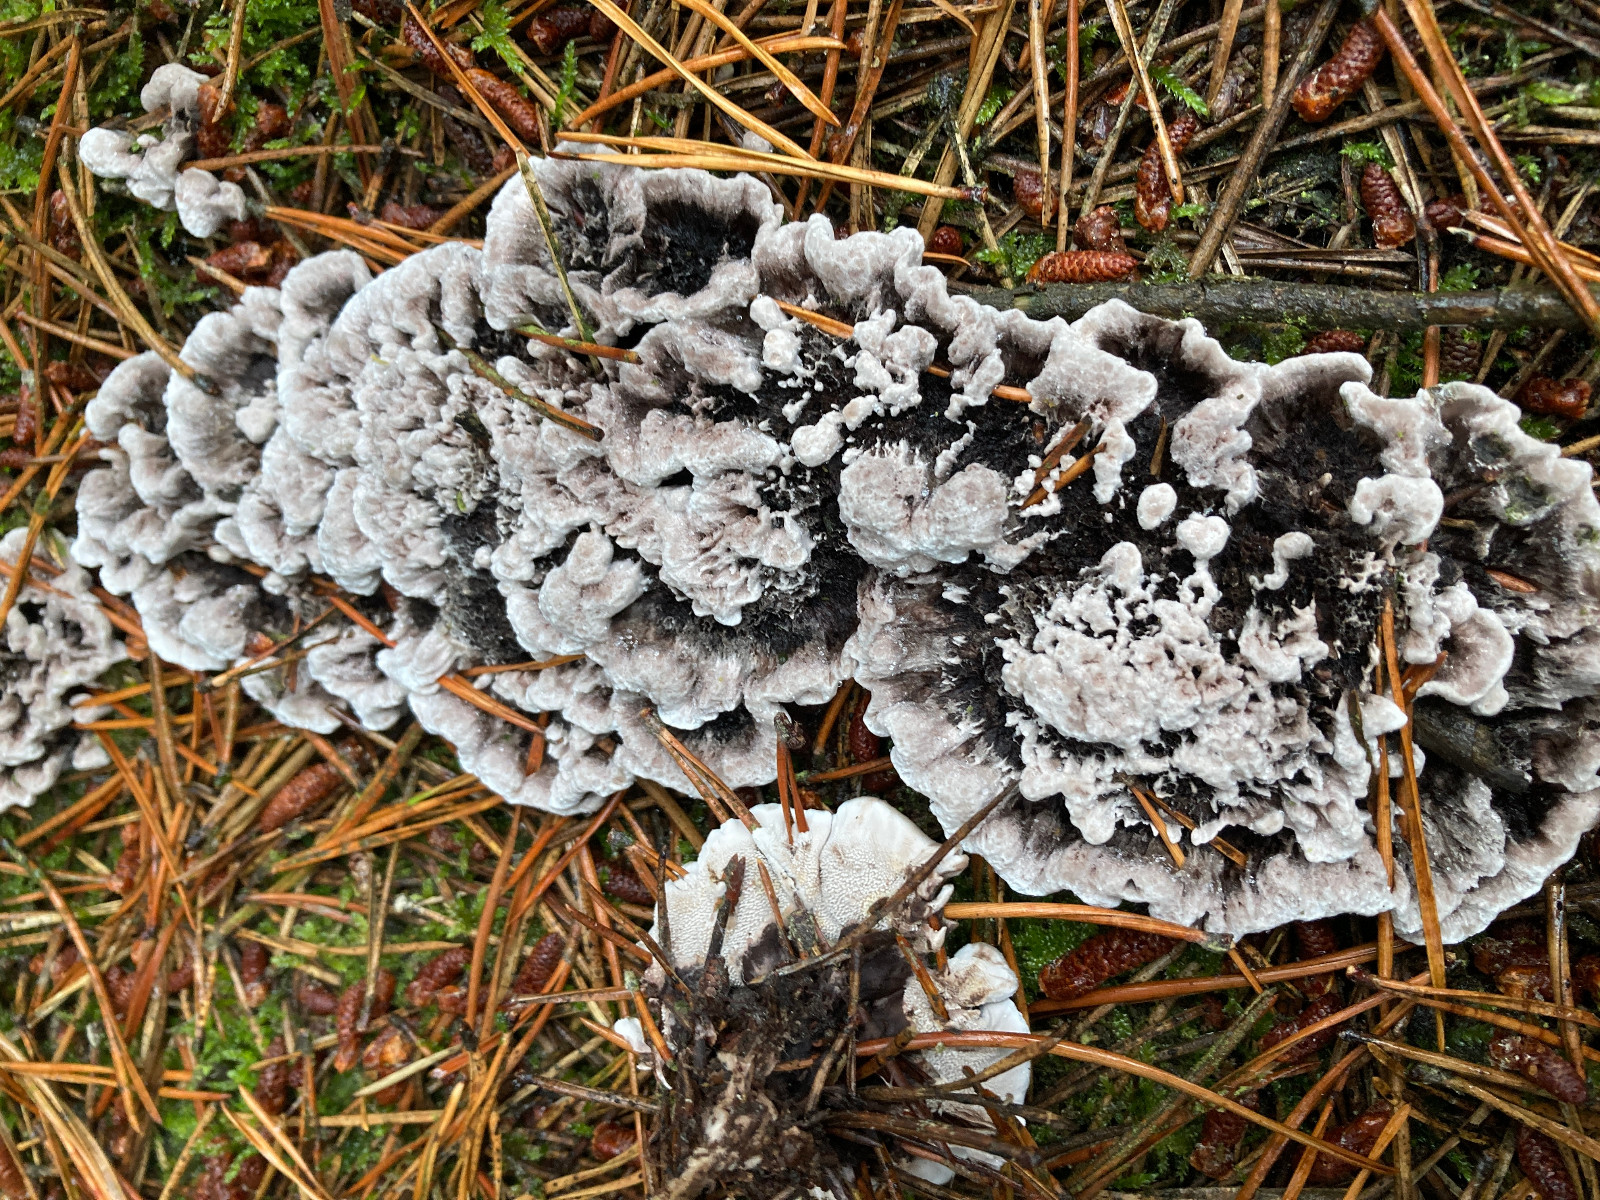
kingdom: Fungi
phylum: Basidiomycota
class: Agaricomycetes
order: Thelephorales
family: Thelephoraceae
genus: Phellodon
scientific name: Phellodon tomentosus
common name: vellugtende duftpigsvamp
